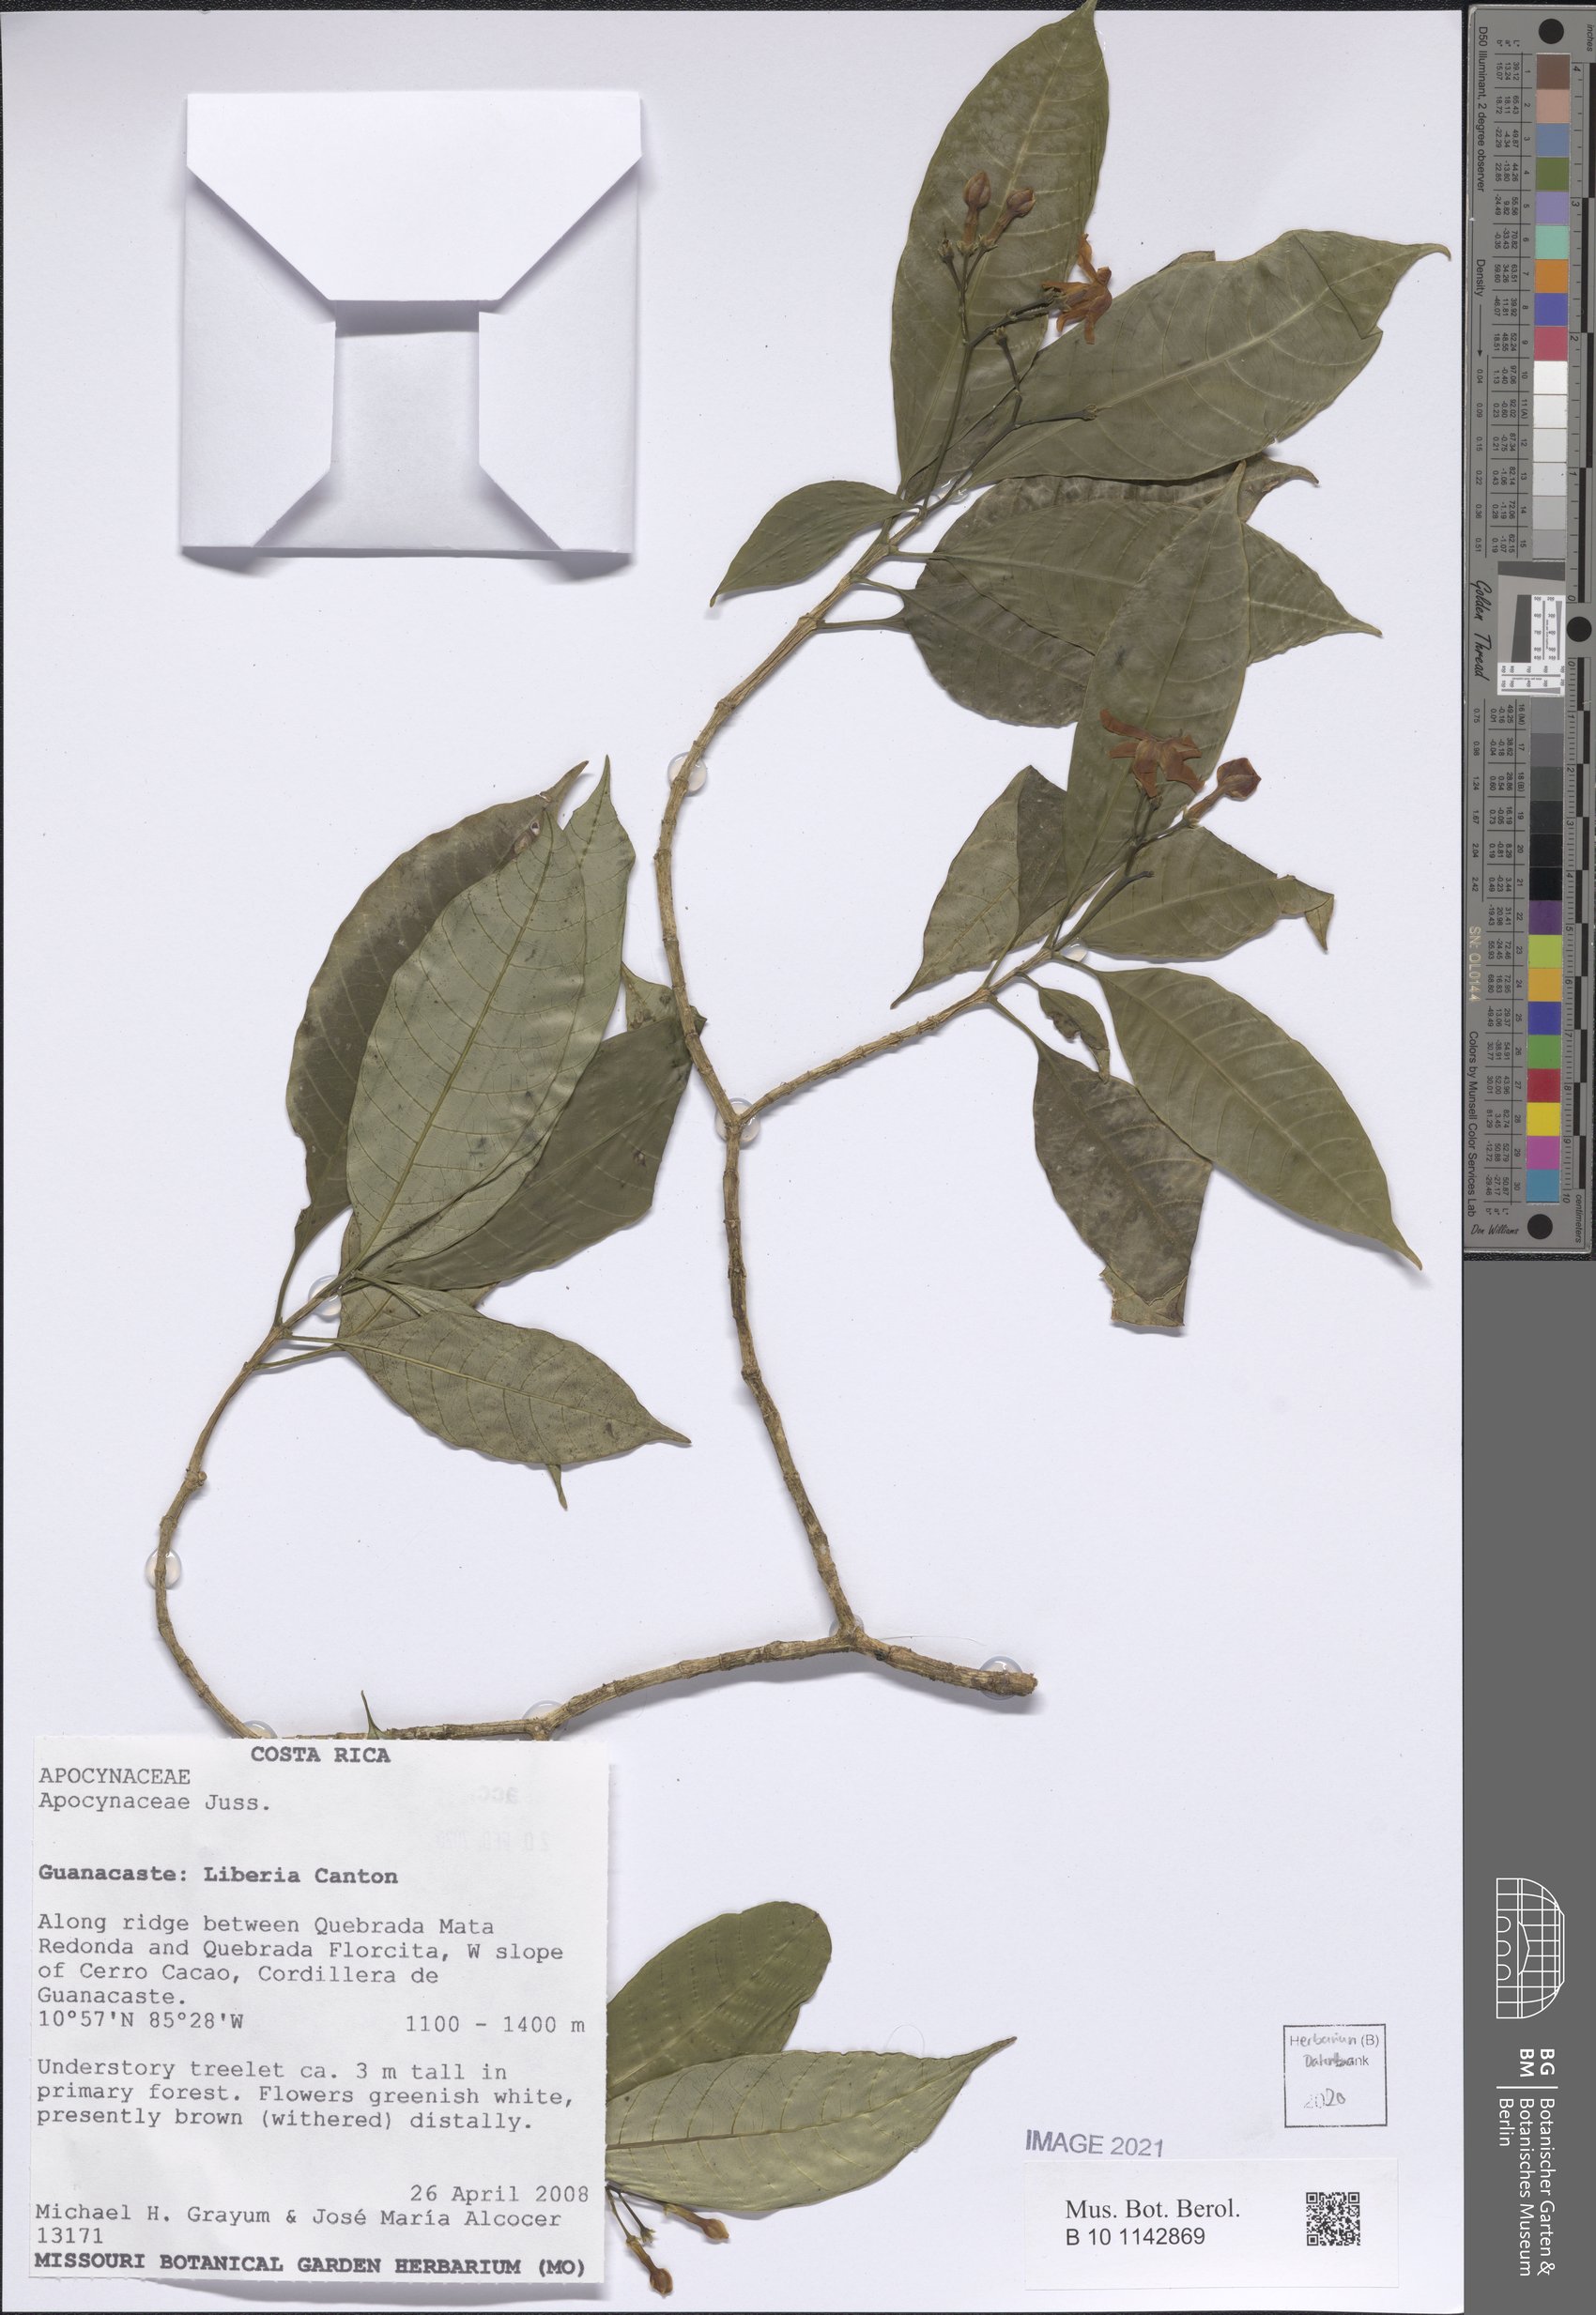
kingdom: Plantae
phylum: Tracheophyta
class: Magnoliopsida
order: Gentianales
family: Apocynaceae
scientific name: Apocynaceae
